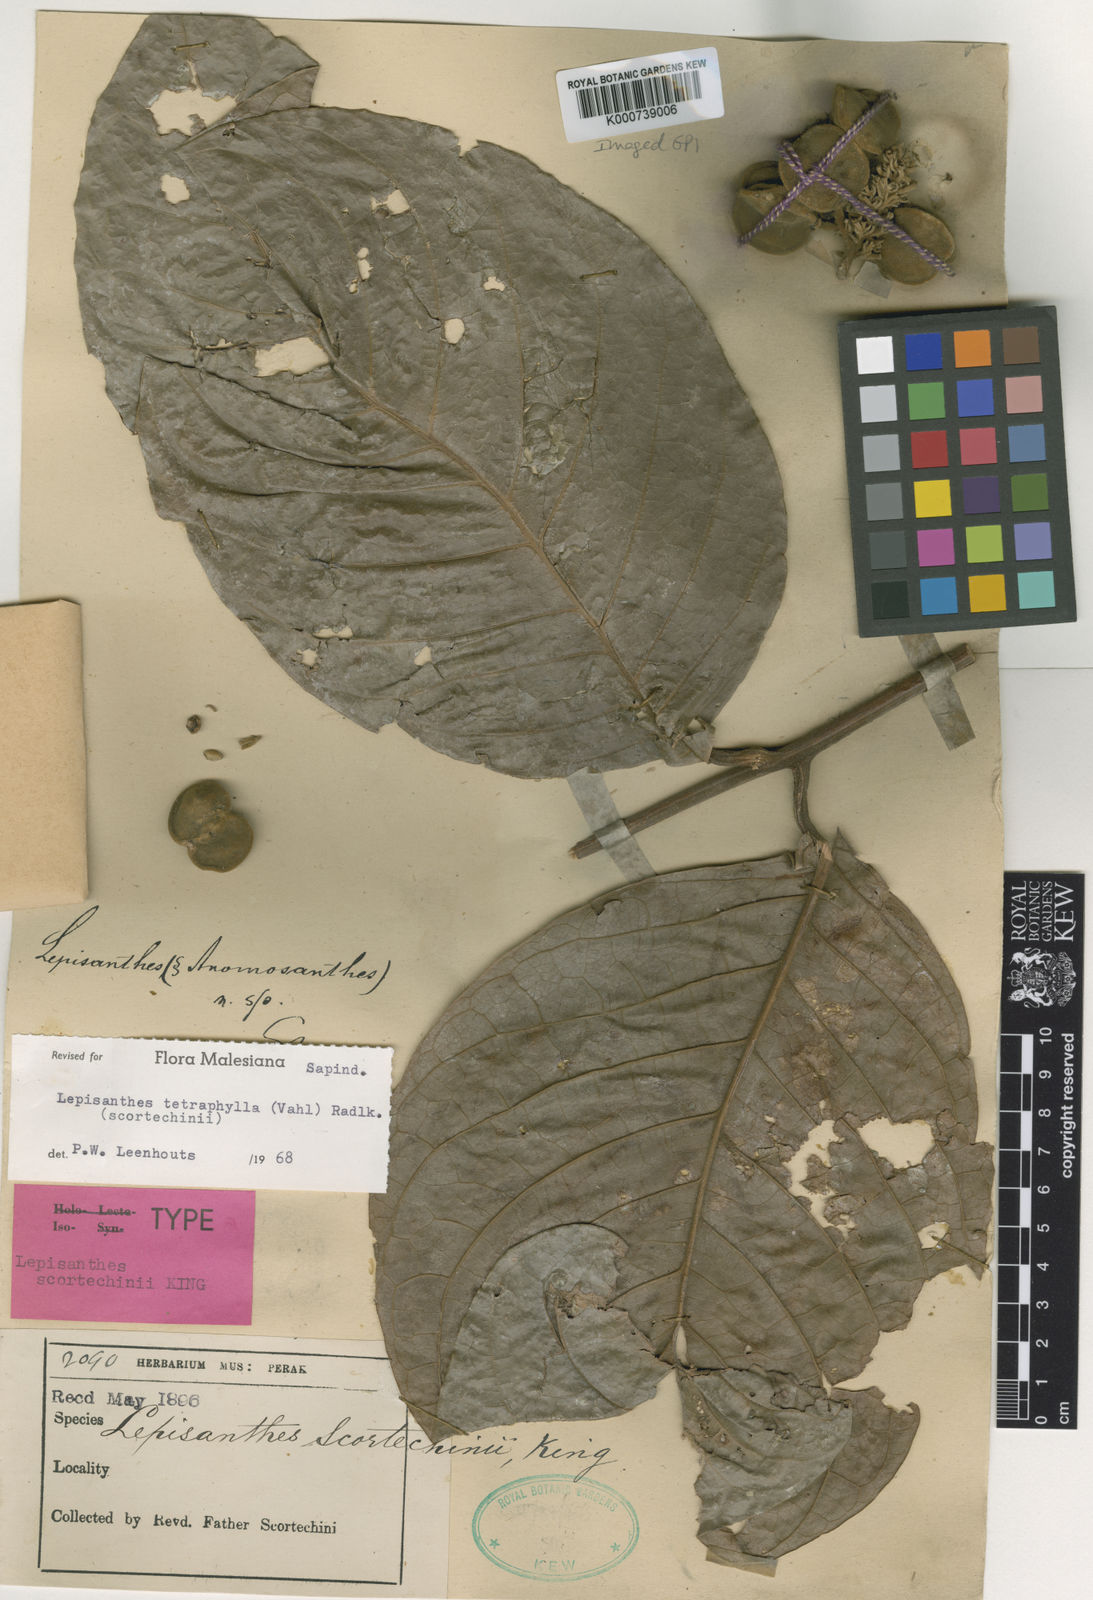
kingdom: Plantae
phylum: Tracheophyta
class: Magnoliopsida
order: Sapindales
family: Sapindaceae
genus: Lepisanthes
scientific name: Lepisanthes tetraphylla
